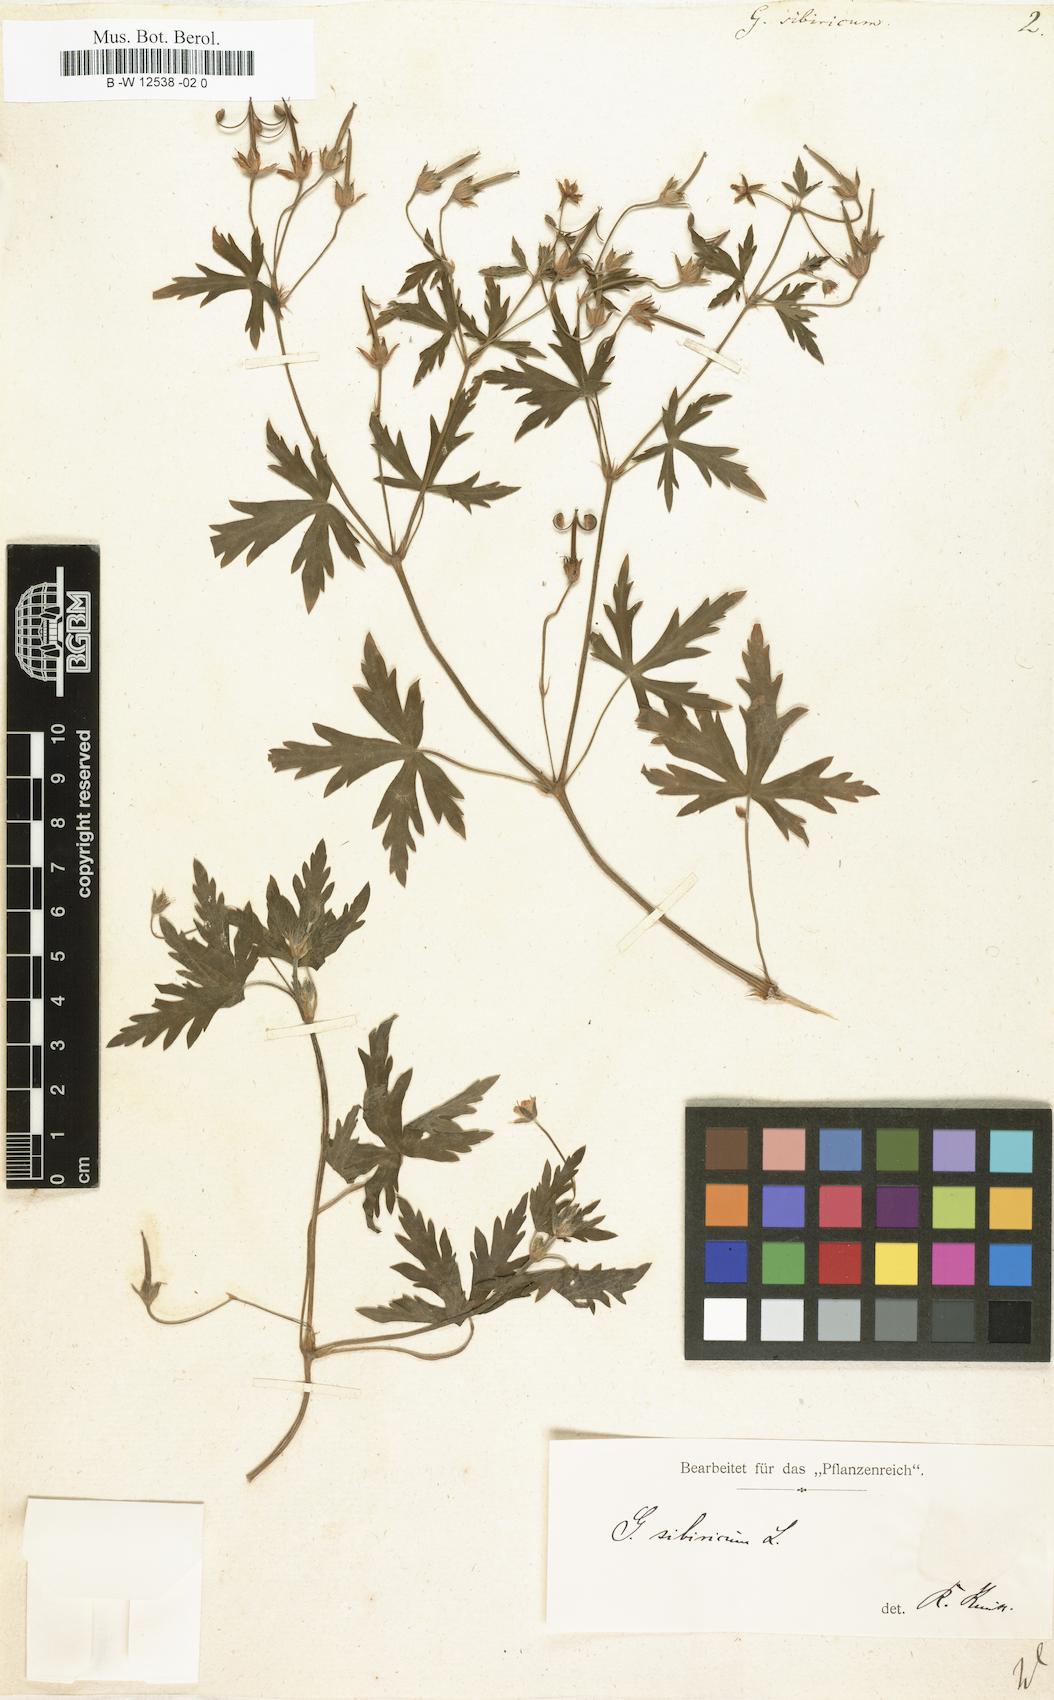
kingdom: Plantae
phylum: Tracheophyta
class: Magnoliopsida
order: Geraniales
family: Geraniaceae
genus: Geranium
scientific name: Geranium sibiricum
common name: Siberian crane's-bill
